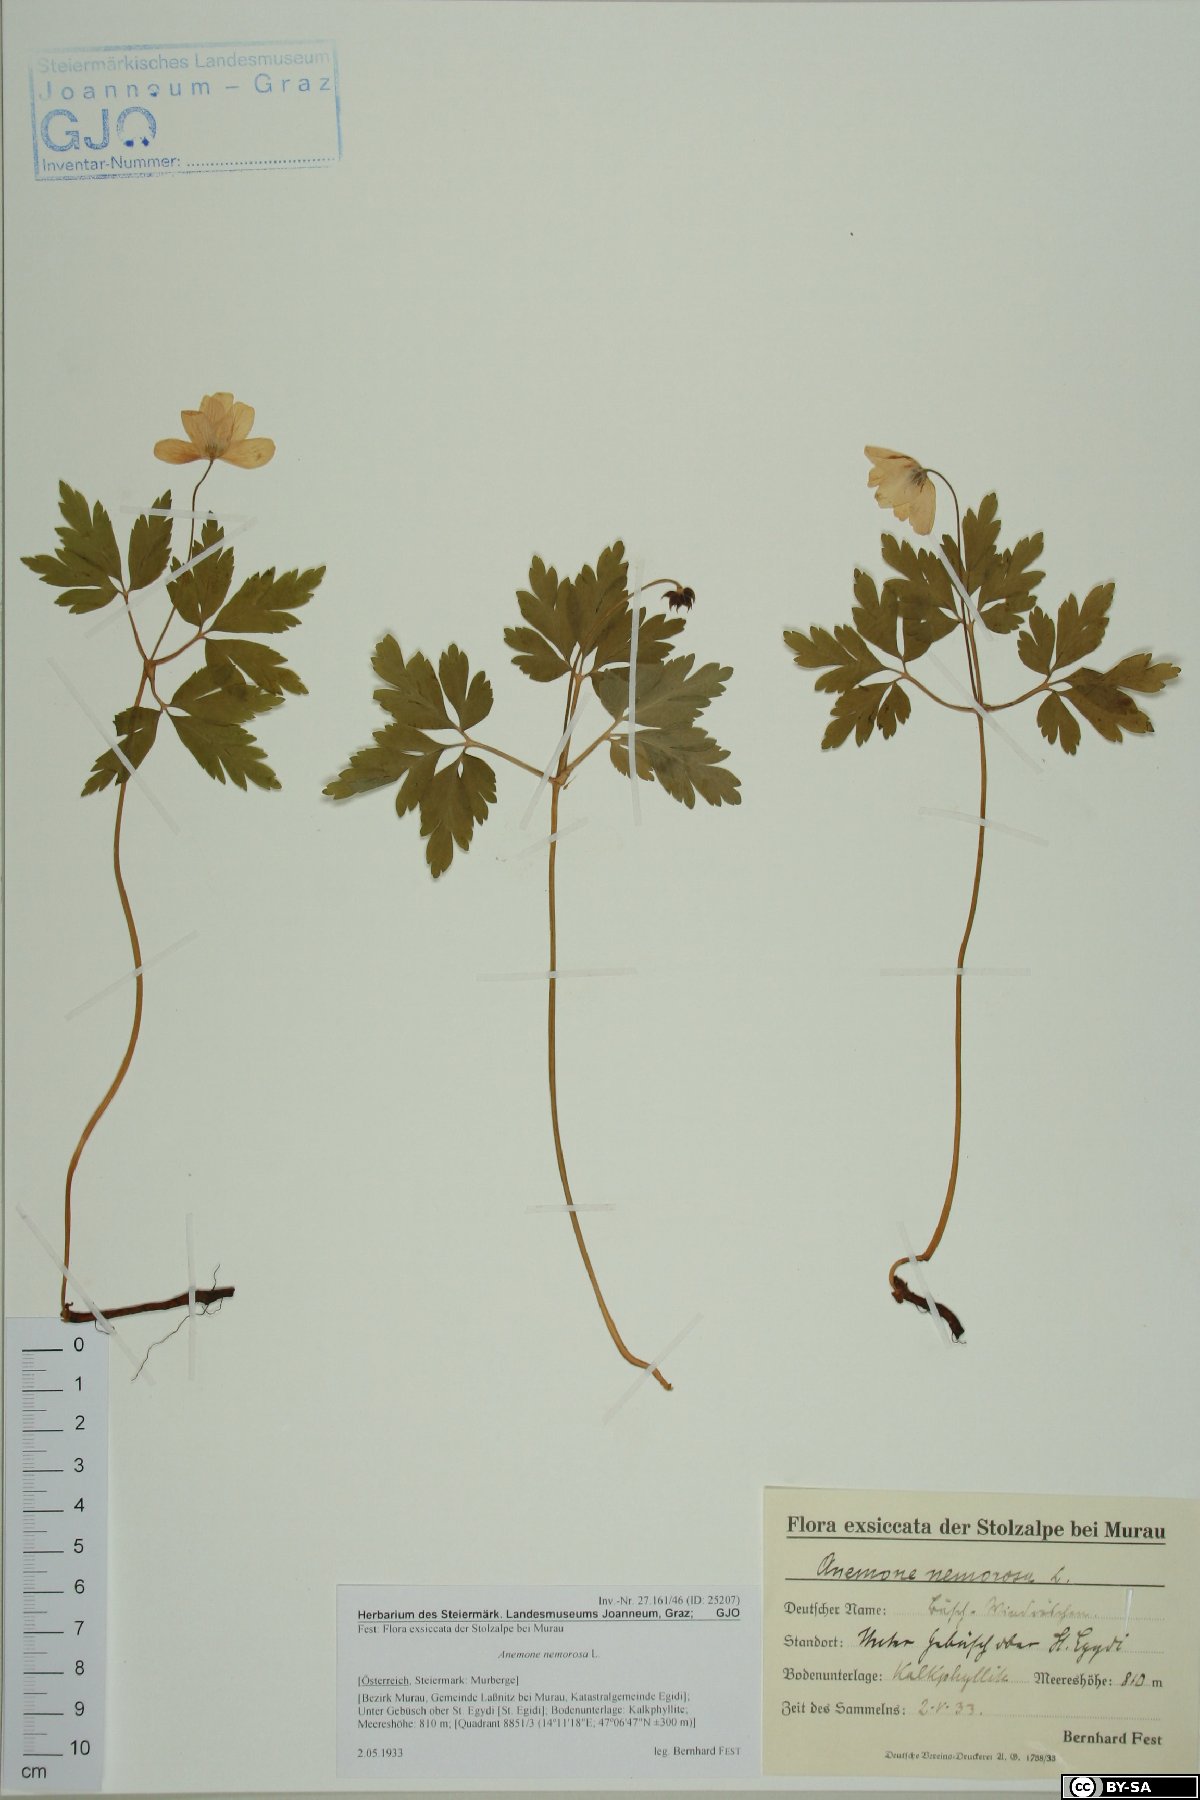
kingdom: Plantae
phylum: Tracheophyta
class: Magnoliopsida
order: Ranunculales
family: Ranunculaceae
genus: Anemone
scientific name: Anemone nemorosa
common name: Wood anemone
